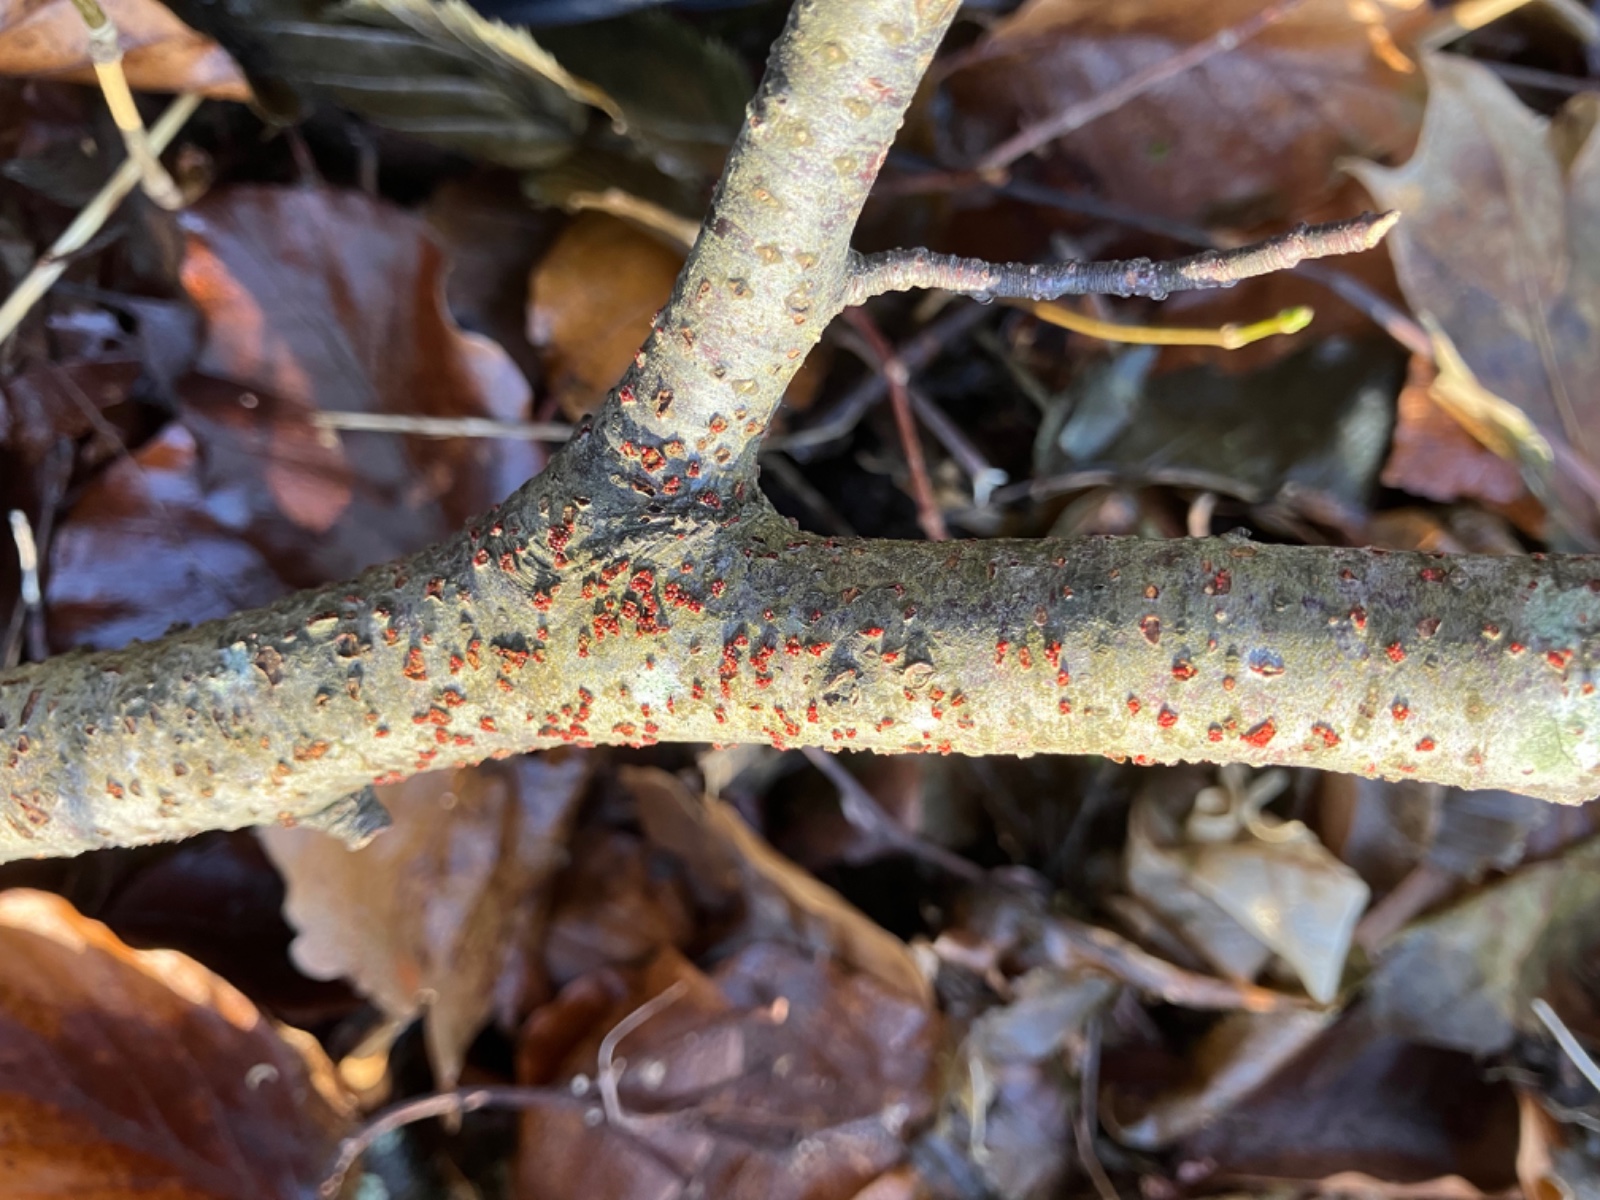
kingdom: Fungi
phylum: Ascomycota
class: Sordariomycetes
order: Hypocreales
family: Nectriaceae
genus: Neonectria
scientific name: Neonectria coccinea
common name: bøgebark-cinnobersvamp
